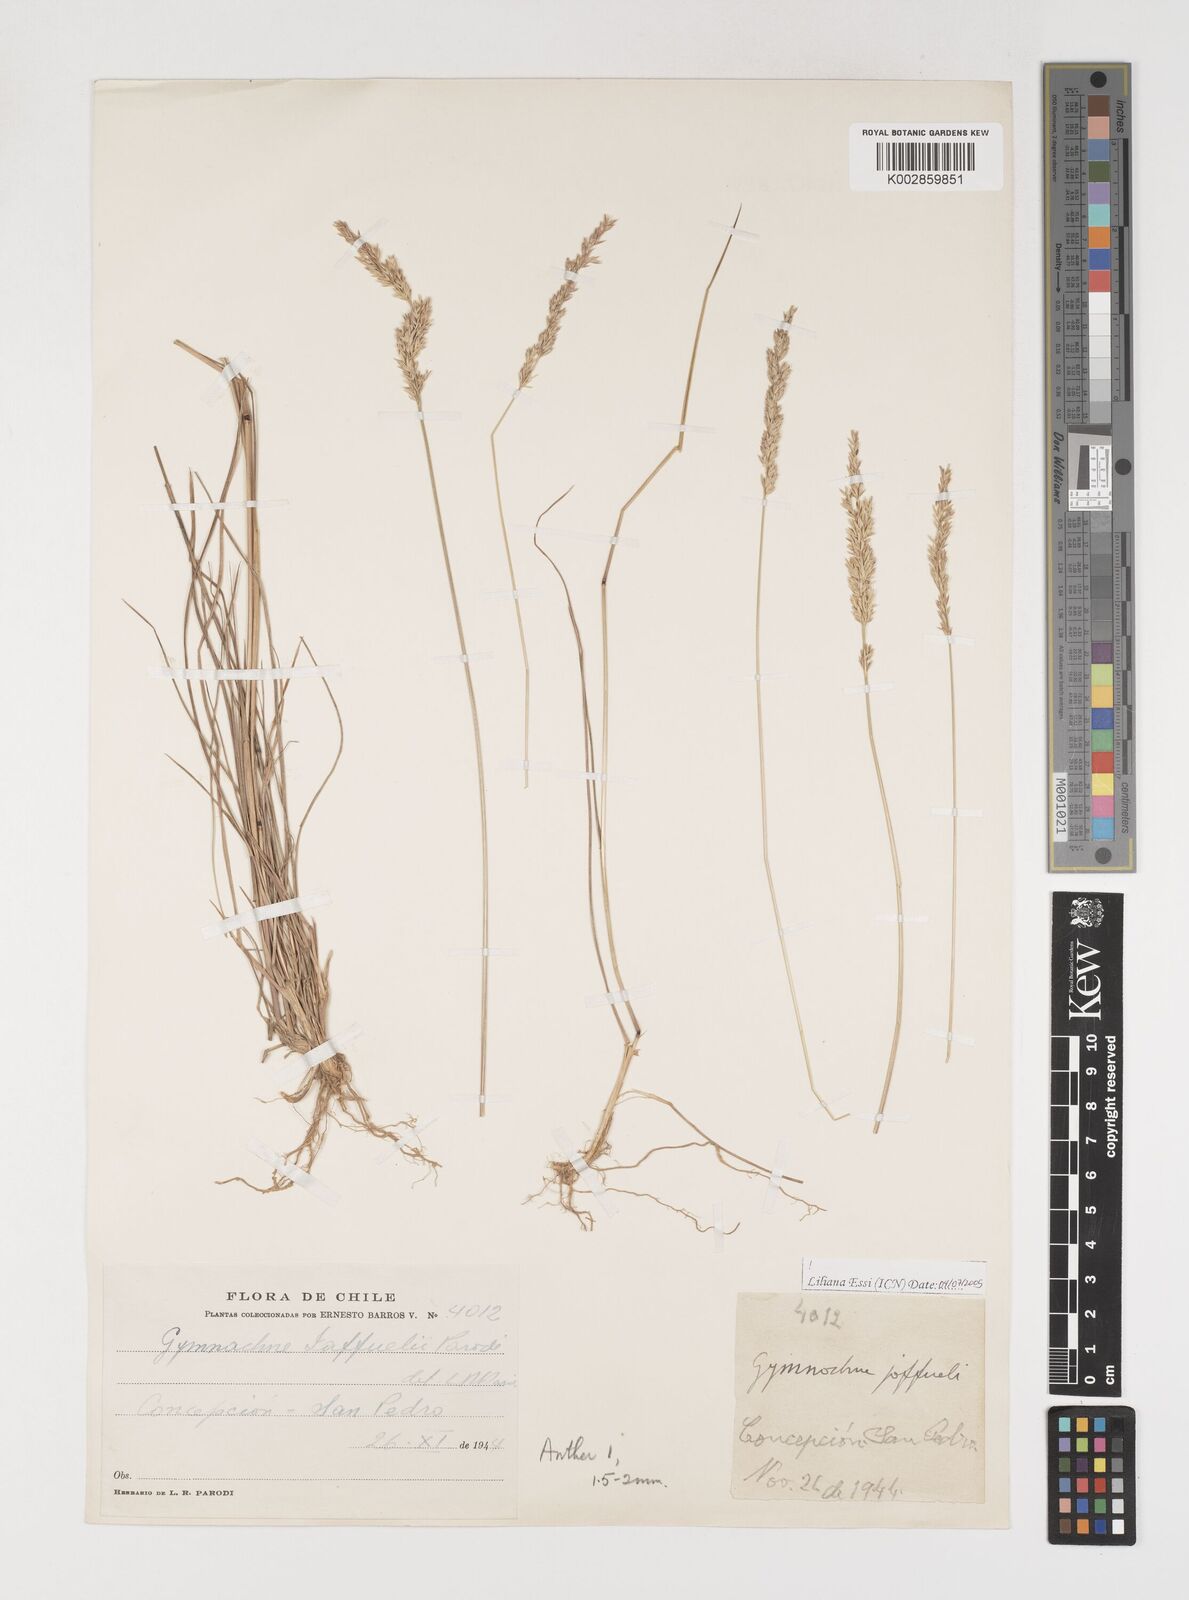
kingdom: Plantae
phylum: Tracheophyta
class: Liliopsida
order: Poales
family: Poaceae
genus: Rhombolytrum
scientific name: Rhombolytrum
